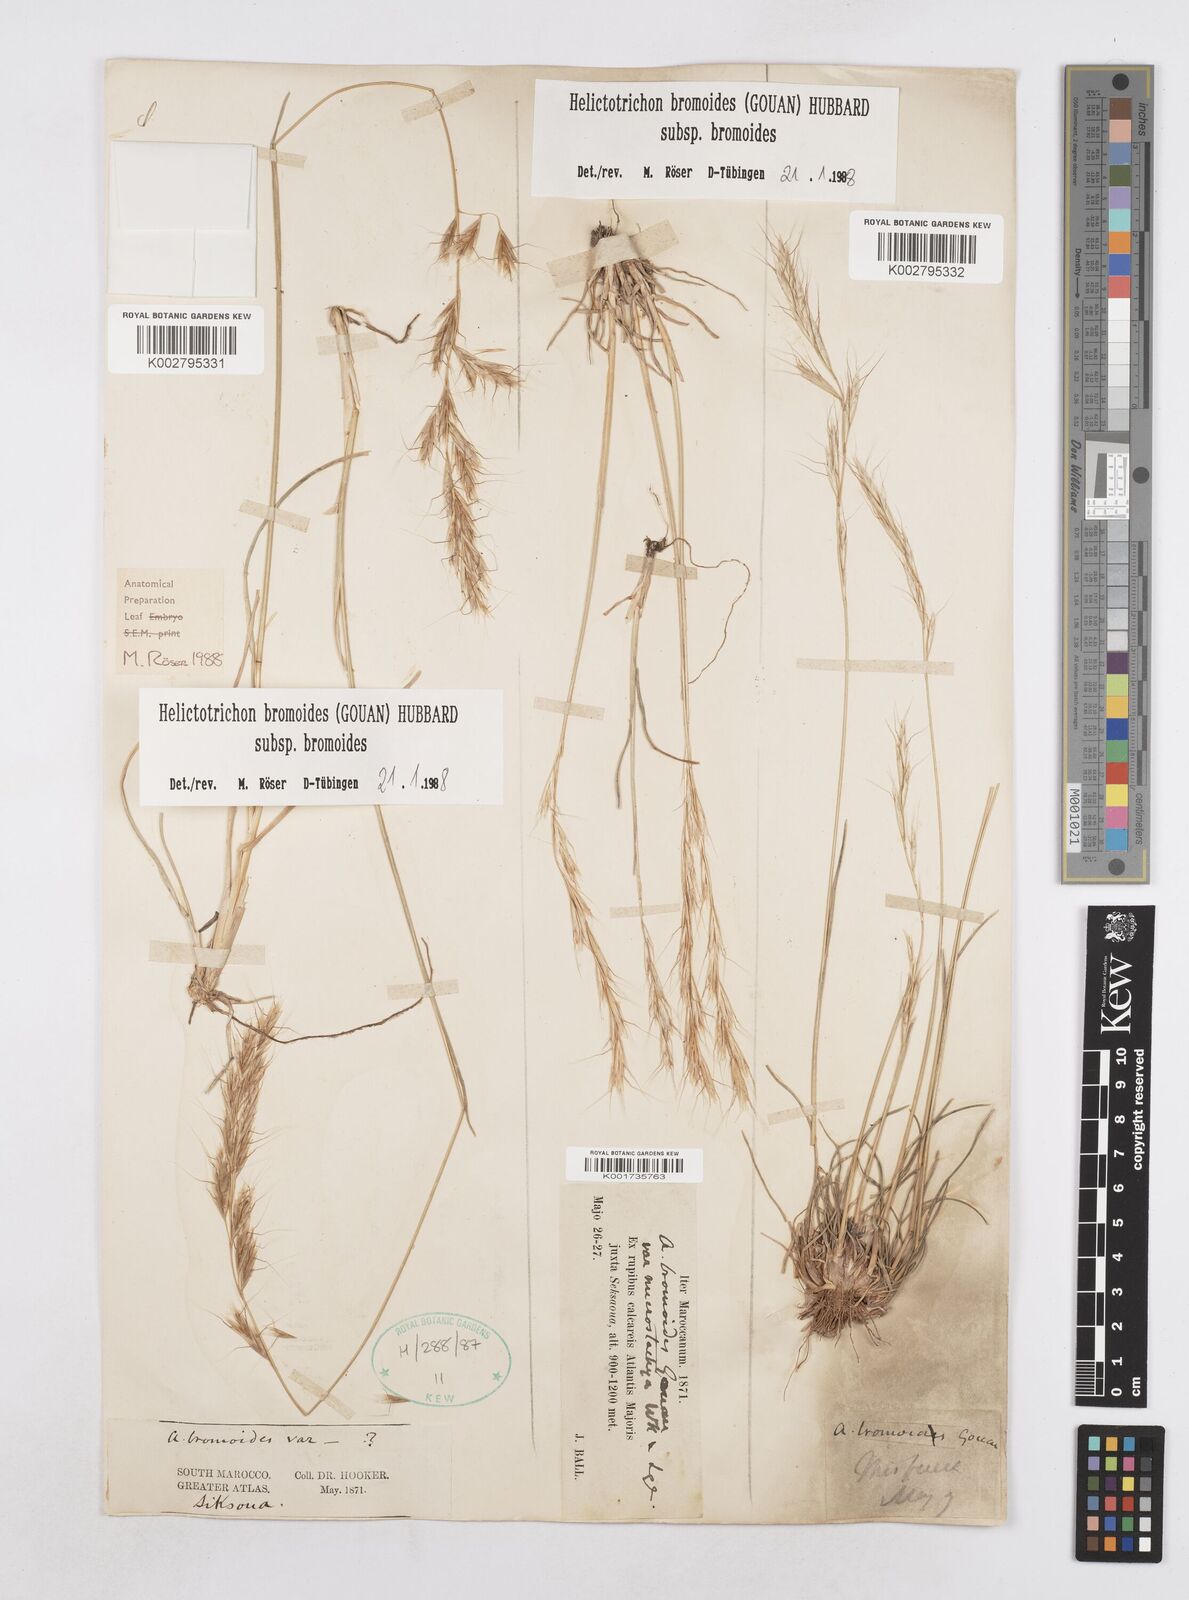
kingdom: Plantae
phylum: Tracheophyta
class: Liliopsida
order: Poales
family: Poaceae
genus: Helictochloa
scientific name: Helictochloa bromoides
